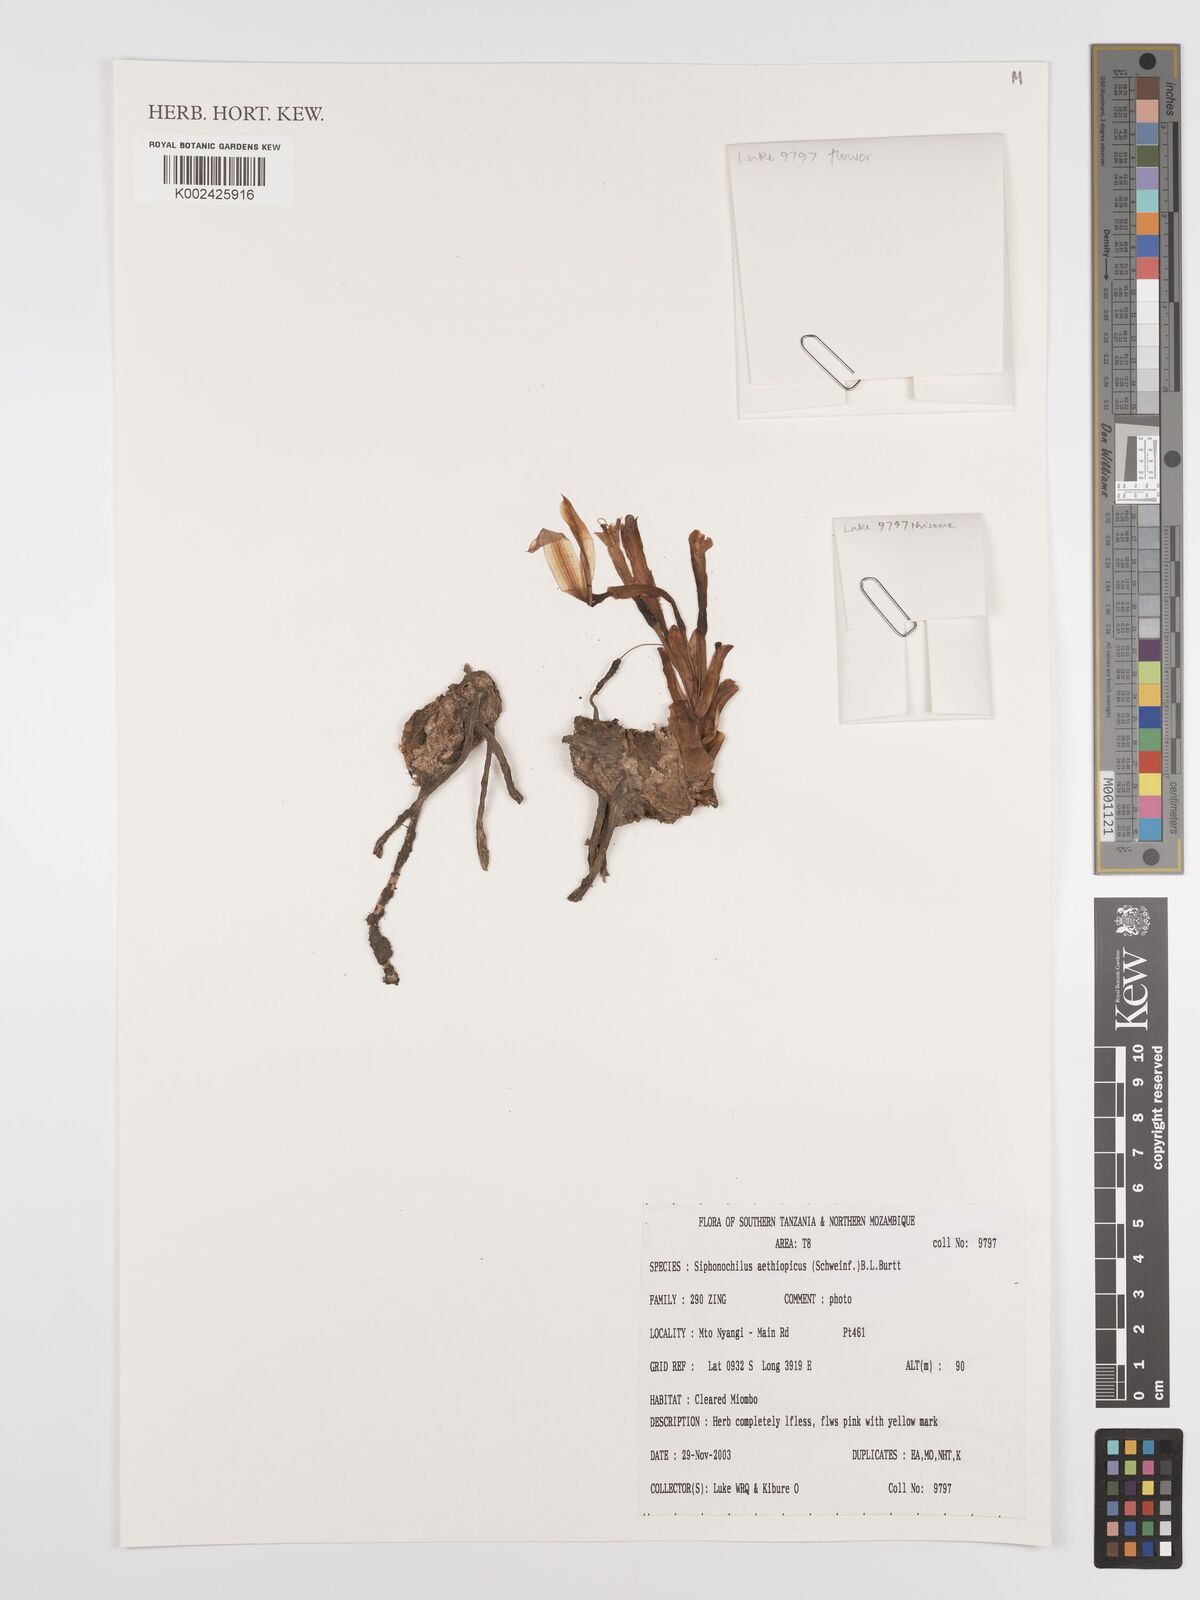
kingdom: Plantae
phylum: Tracheophyta
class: Liliopsida
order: Zingiberales
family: Zingiberaceae
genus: Siphonochilus
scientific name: Siphonochilus aethiopicus
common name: African-ginger
